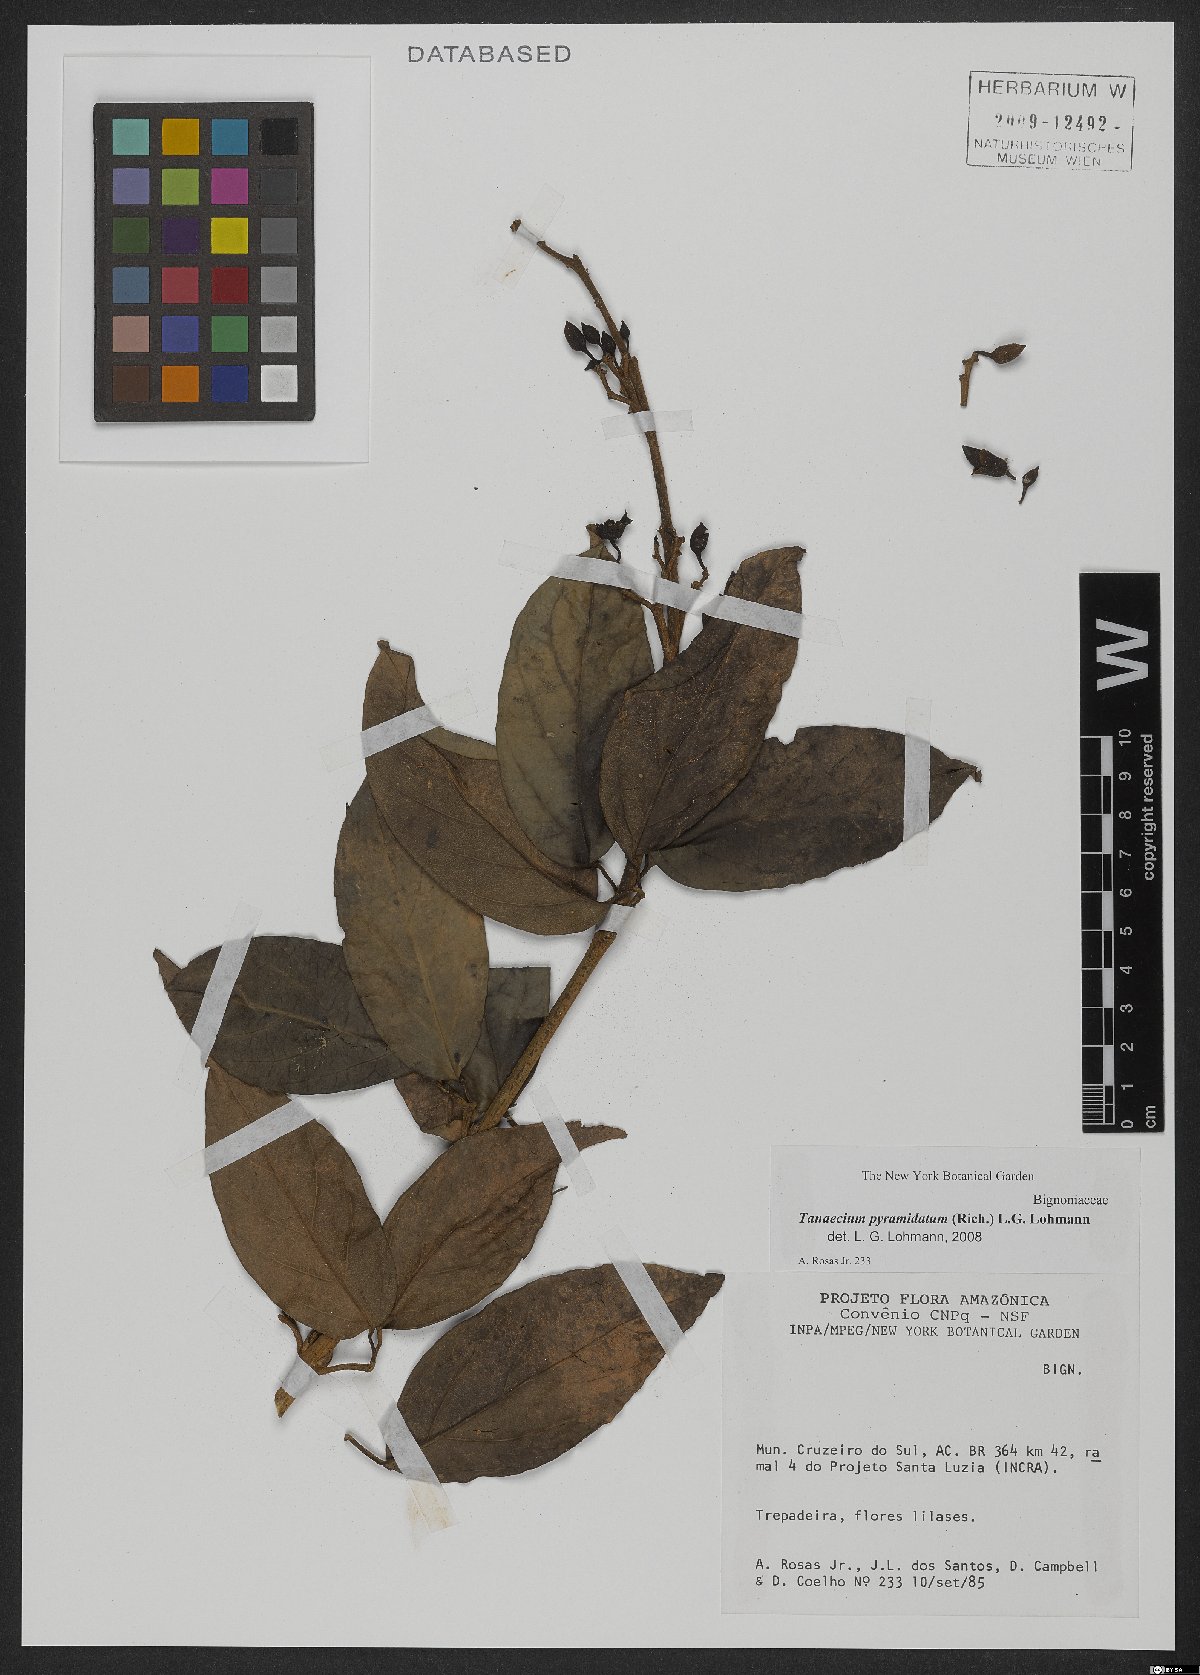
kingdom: Plantae
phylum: Tracheophyta
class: Magnoliopsida
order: Lamiales
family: Bignoniaceae
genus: Tanaecium
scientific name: Tanaecium pyramidatum
